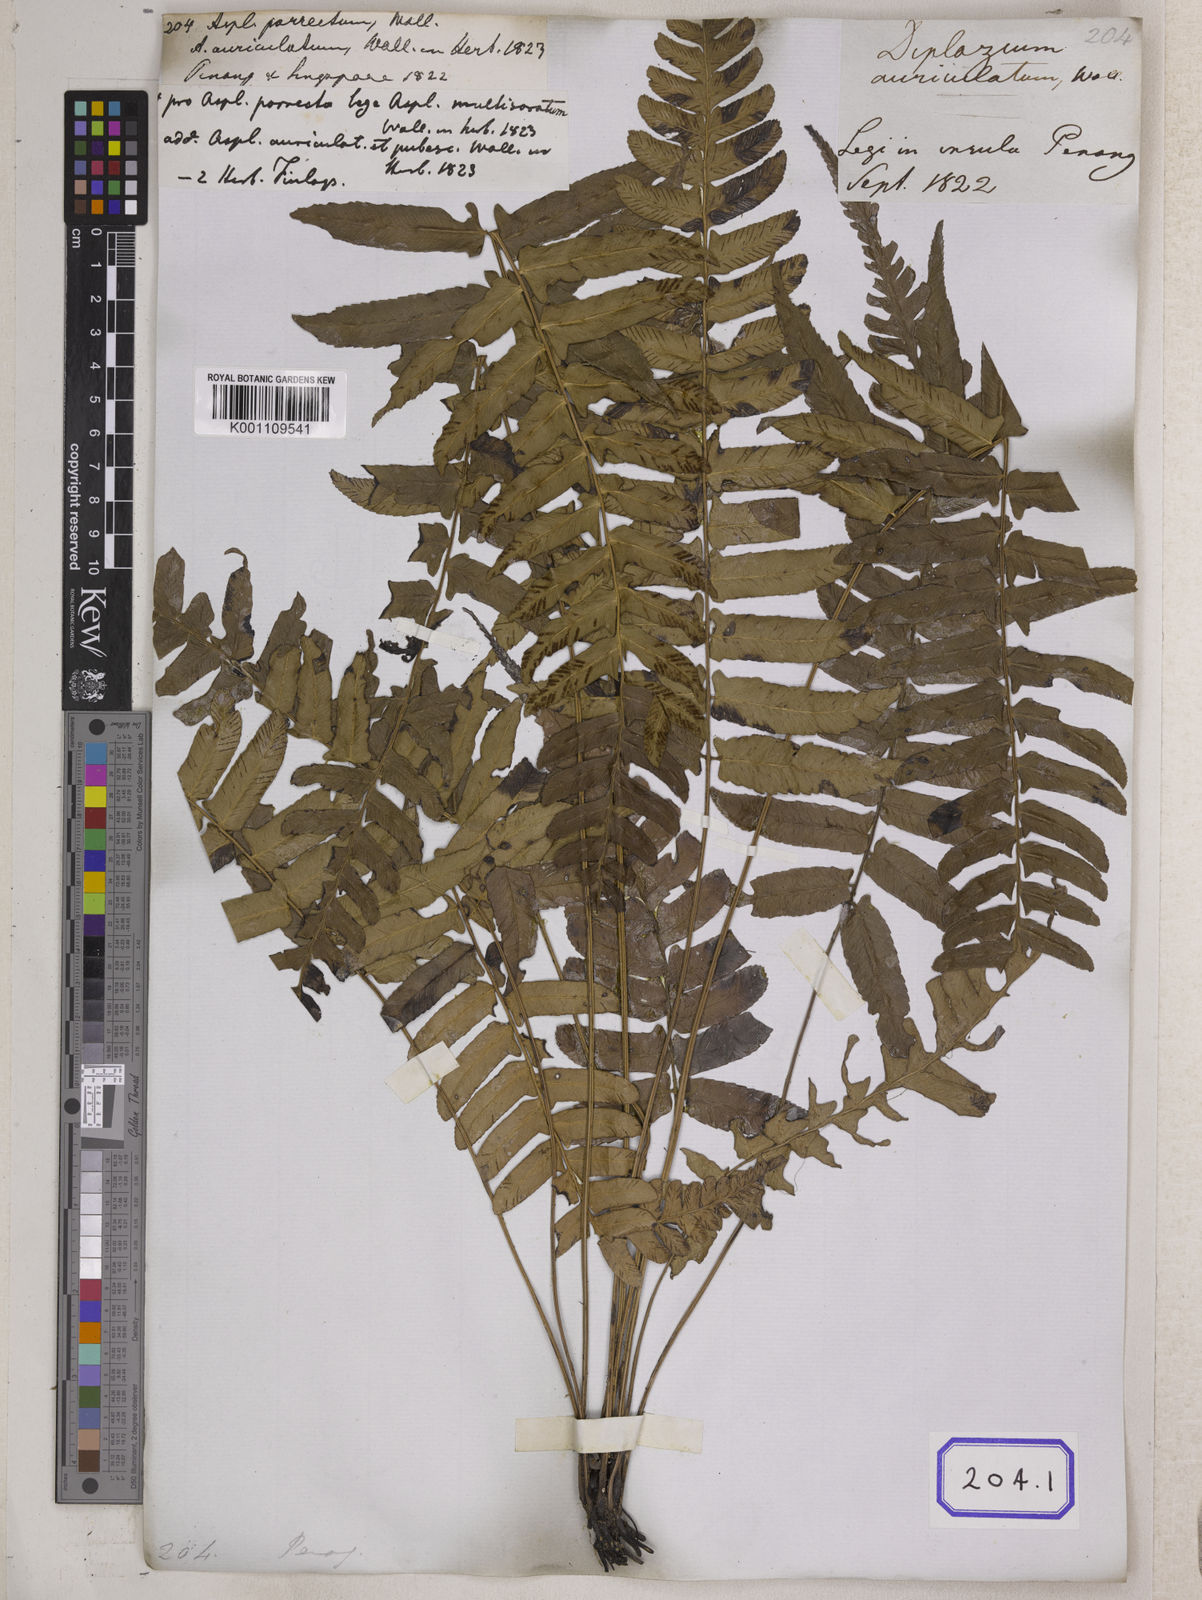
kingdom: Plantae
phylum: Tracheophyta
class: Polypodiopsida
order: Polypodiales
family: Aspleniaceae
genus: Asplenium
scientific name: Asplenium
